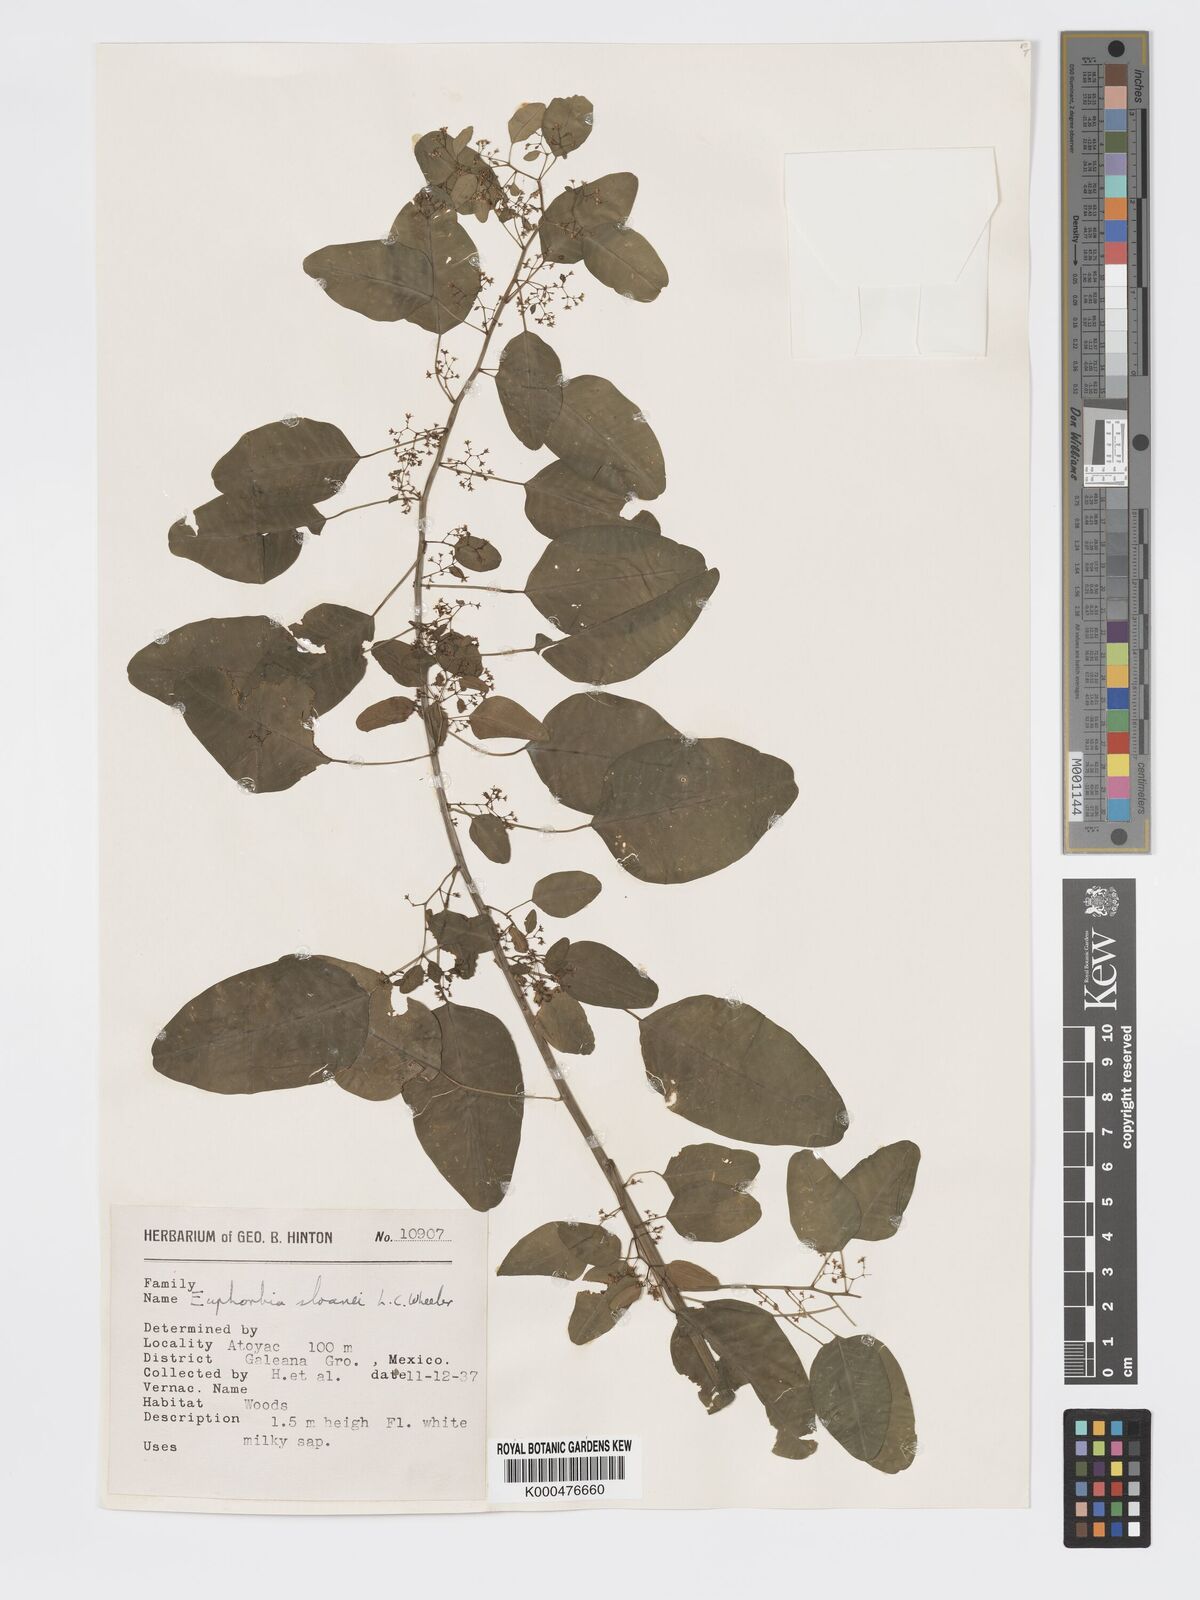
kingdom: Plantae
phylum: Tracheophyta
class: Magnoliopsida
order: Malpighiales
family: Euphorbiaceae
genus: Euphorbia
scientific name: Euphorbia segoviensis
